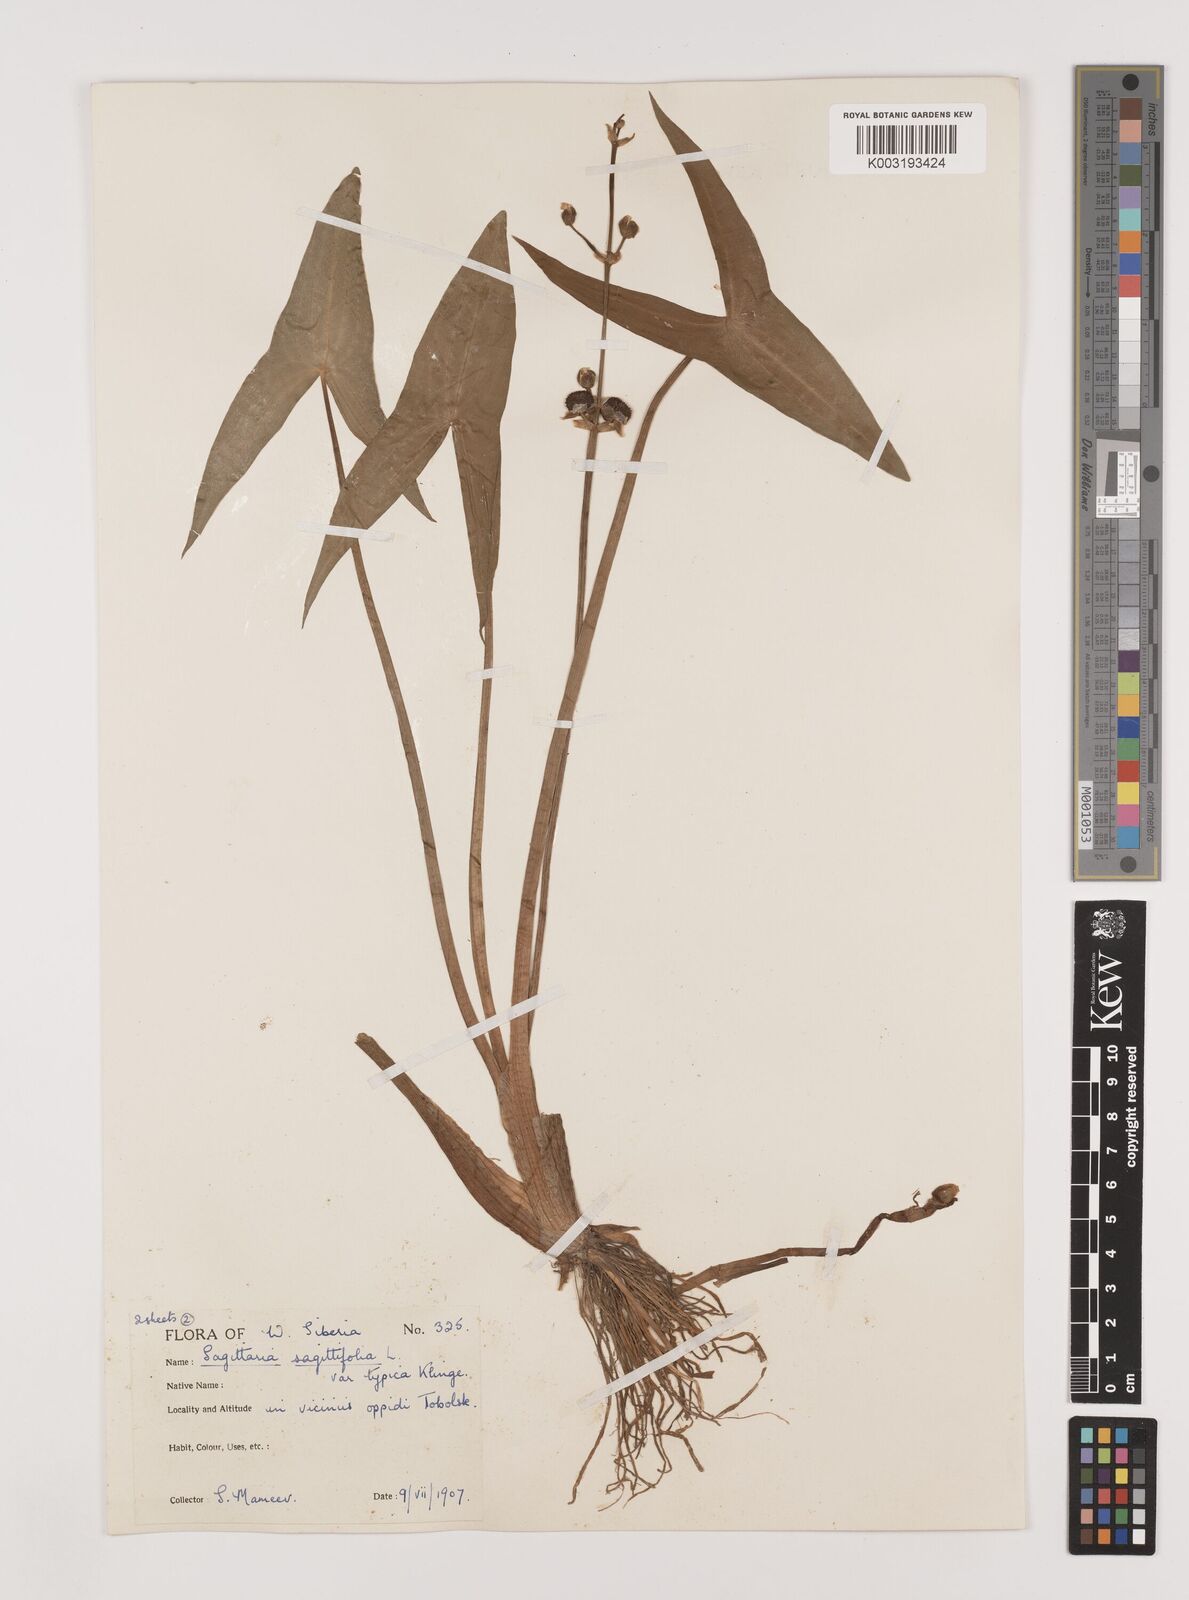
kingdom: Plantae
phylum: Tracheophyta
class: Liliopsida
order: Alismatales
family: Alismataceae
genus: Sagittaria
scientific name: Sagittaria sagittifolia
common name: Arrowhead
